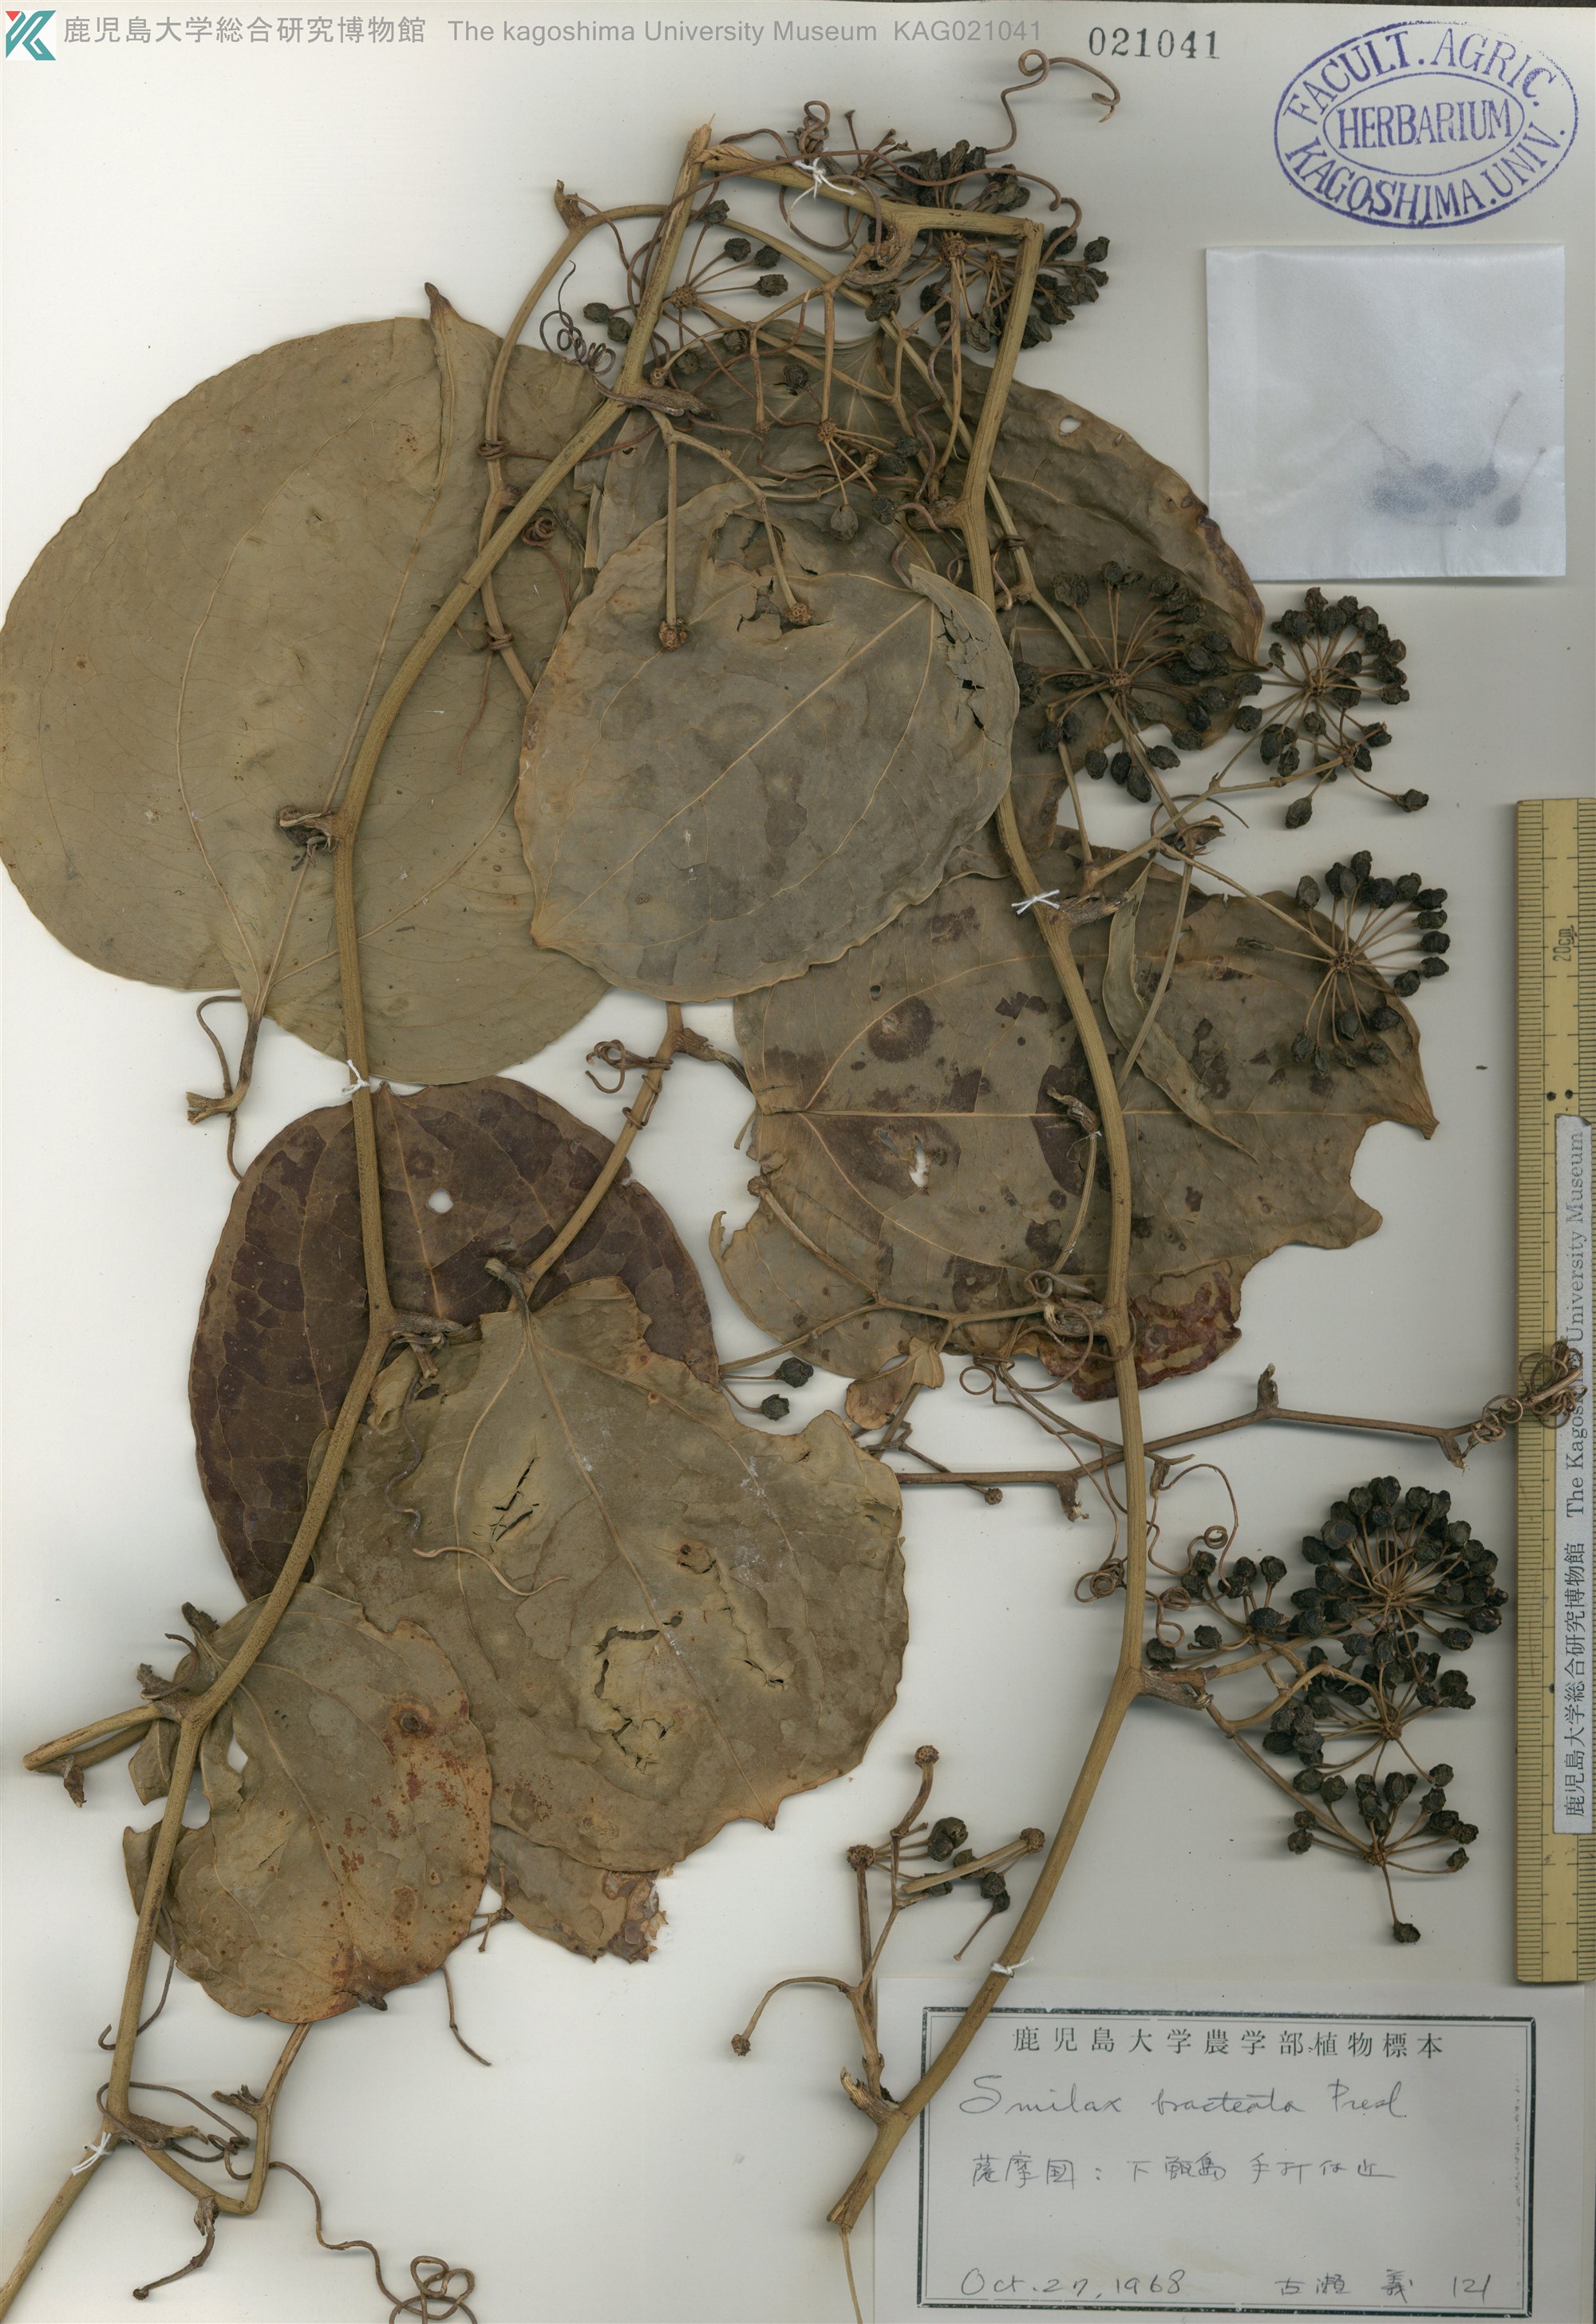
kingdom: Plantae
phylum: Tracheophyta
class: Liliopsida
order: Liliales
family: Smilacaceae
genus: Smilax
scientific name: Smilax bracteata
